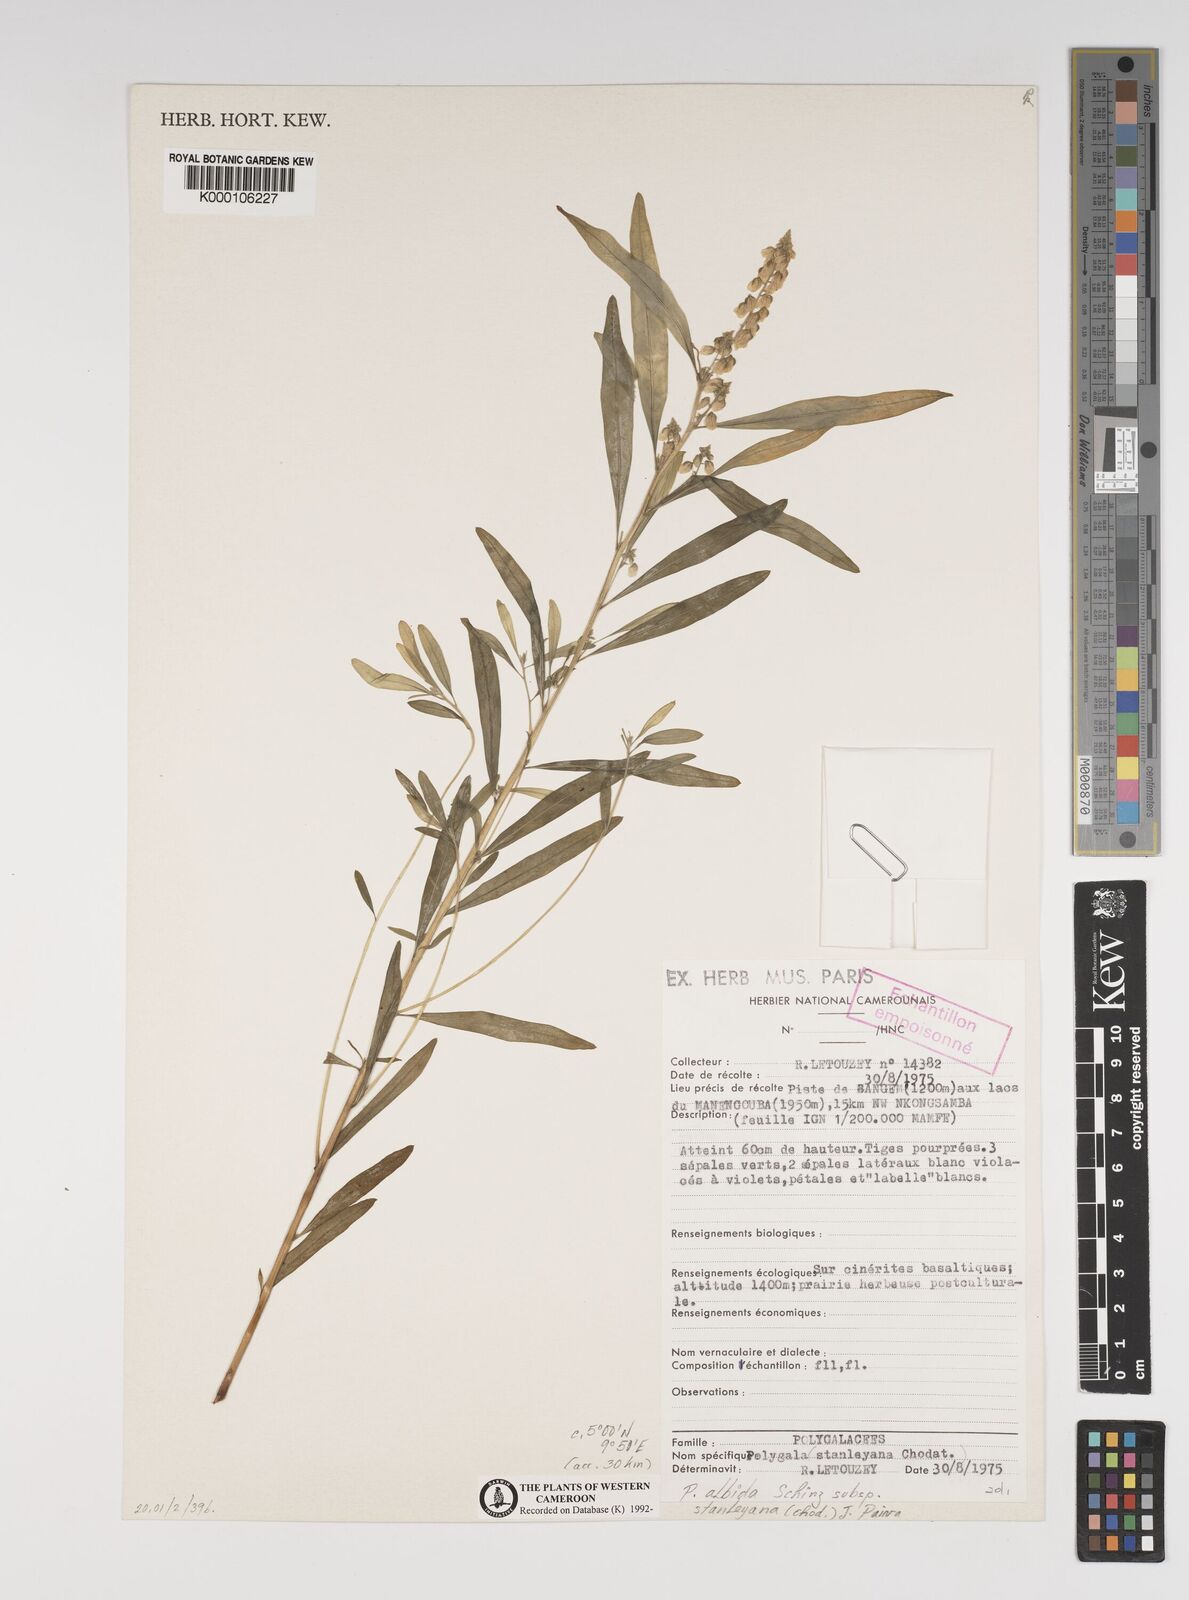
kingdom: Plantae
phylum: Tracheophyta
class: Magnoliopsida
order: Fabales
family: Polygalaceae
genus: Polygala
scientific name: Polygala albida
